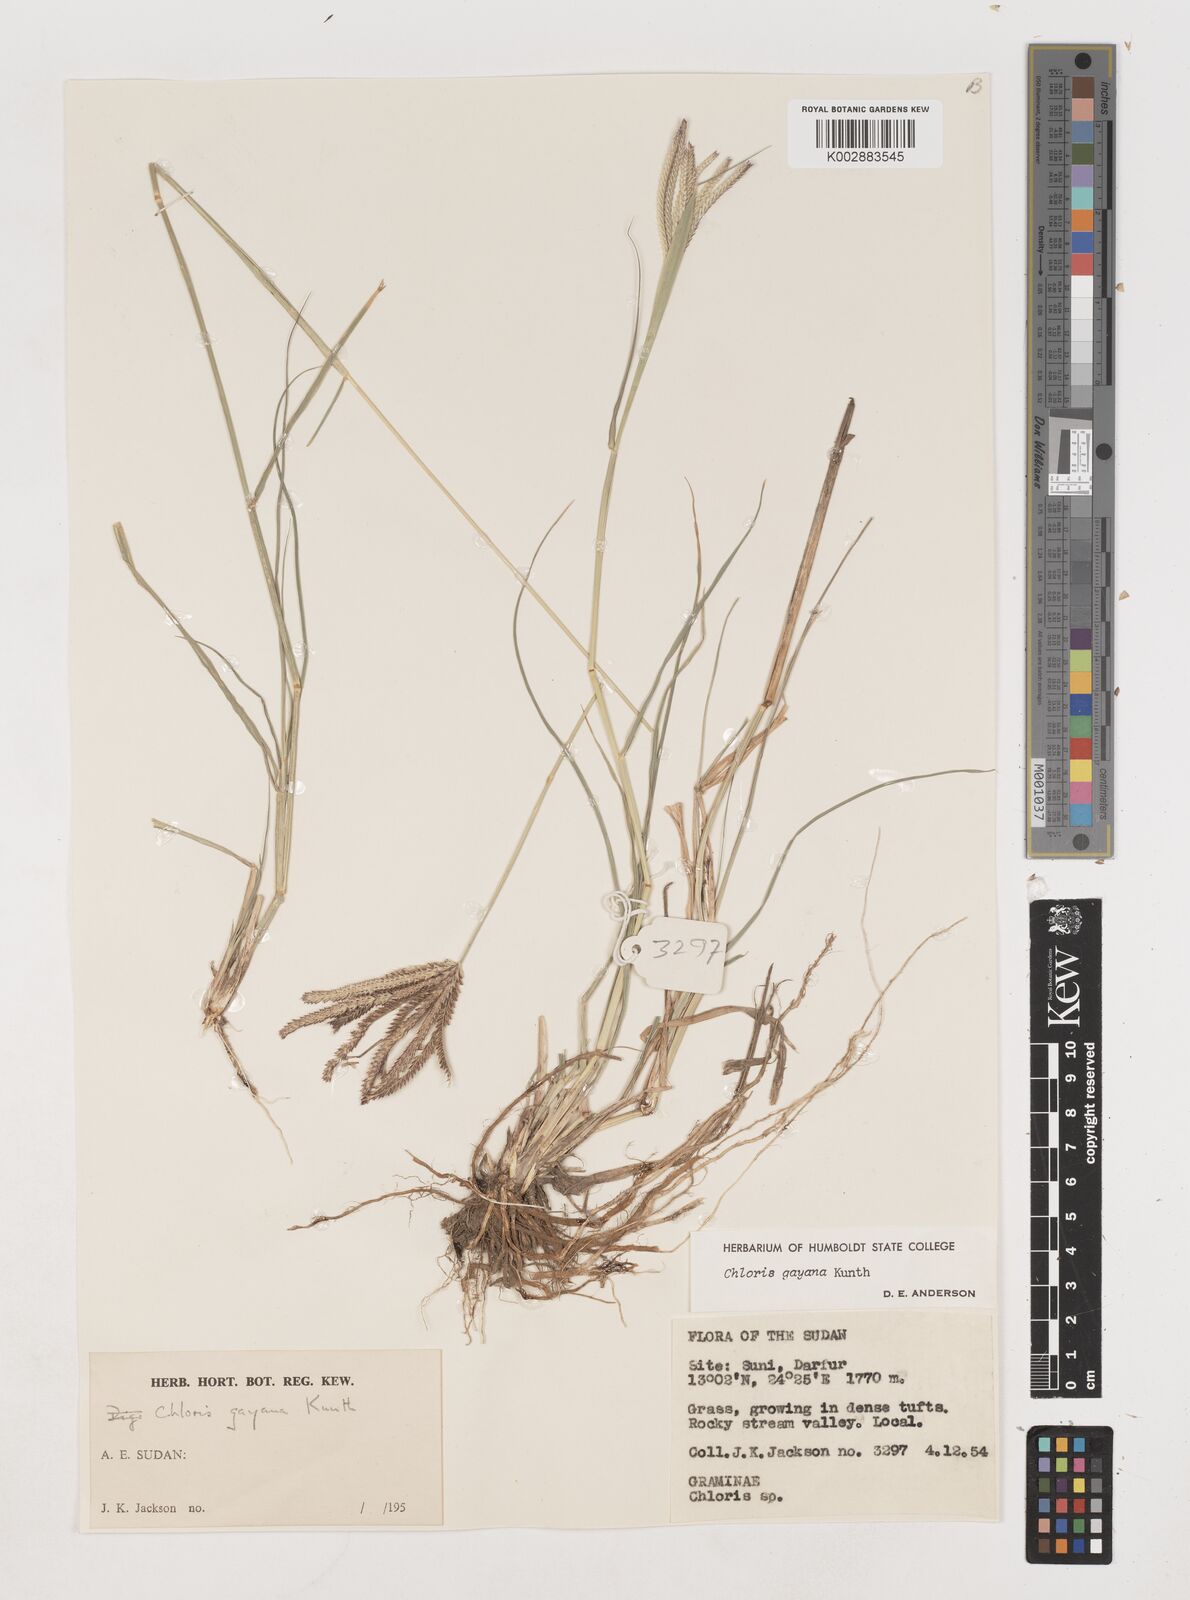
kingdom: Plantae
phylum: Tracheophyta
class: Liliopsida
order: Poales
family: Poaceae
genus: Chloris
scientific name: Chloris gayana
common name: Rhodes grass
